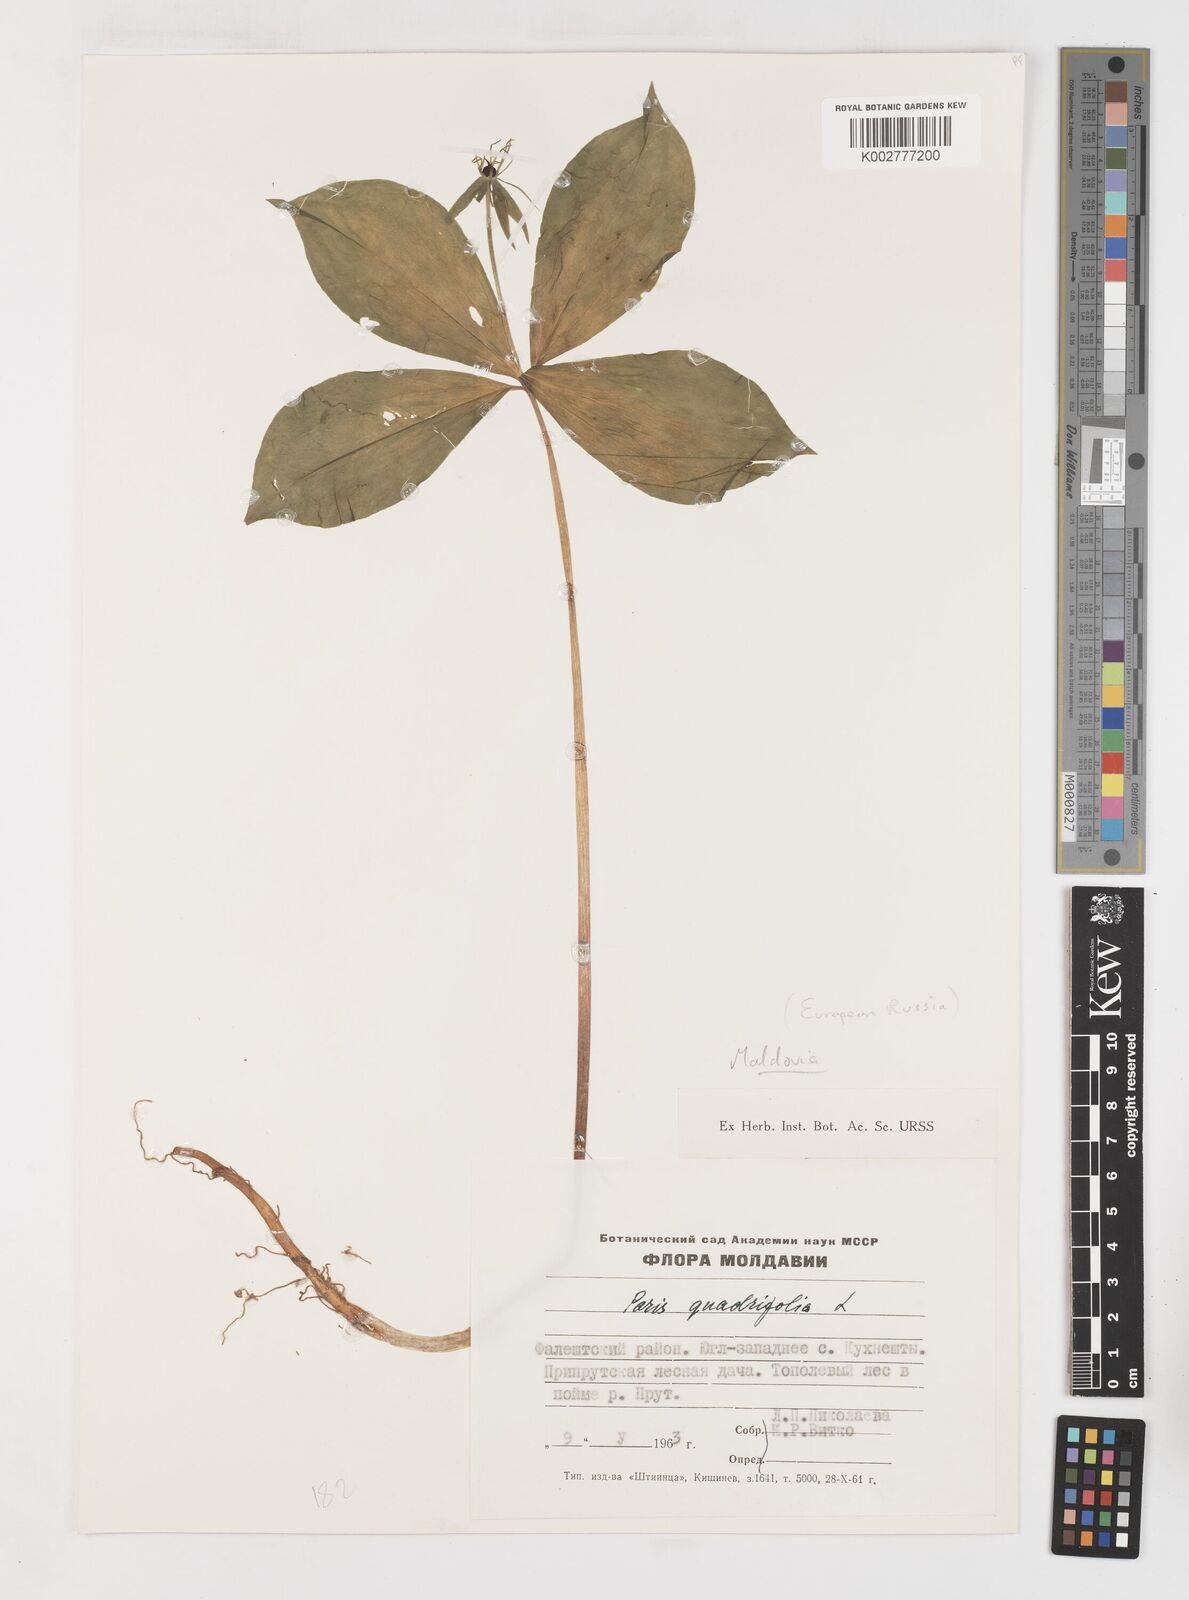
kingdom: Plantae
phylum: Tracheophyta
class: Liliopsida
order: Liliales
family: Melanthiaceae
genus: Paris
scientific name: Paris quadrifolia
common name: Herb-paris
